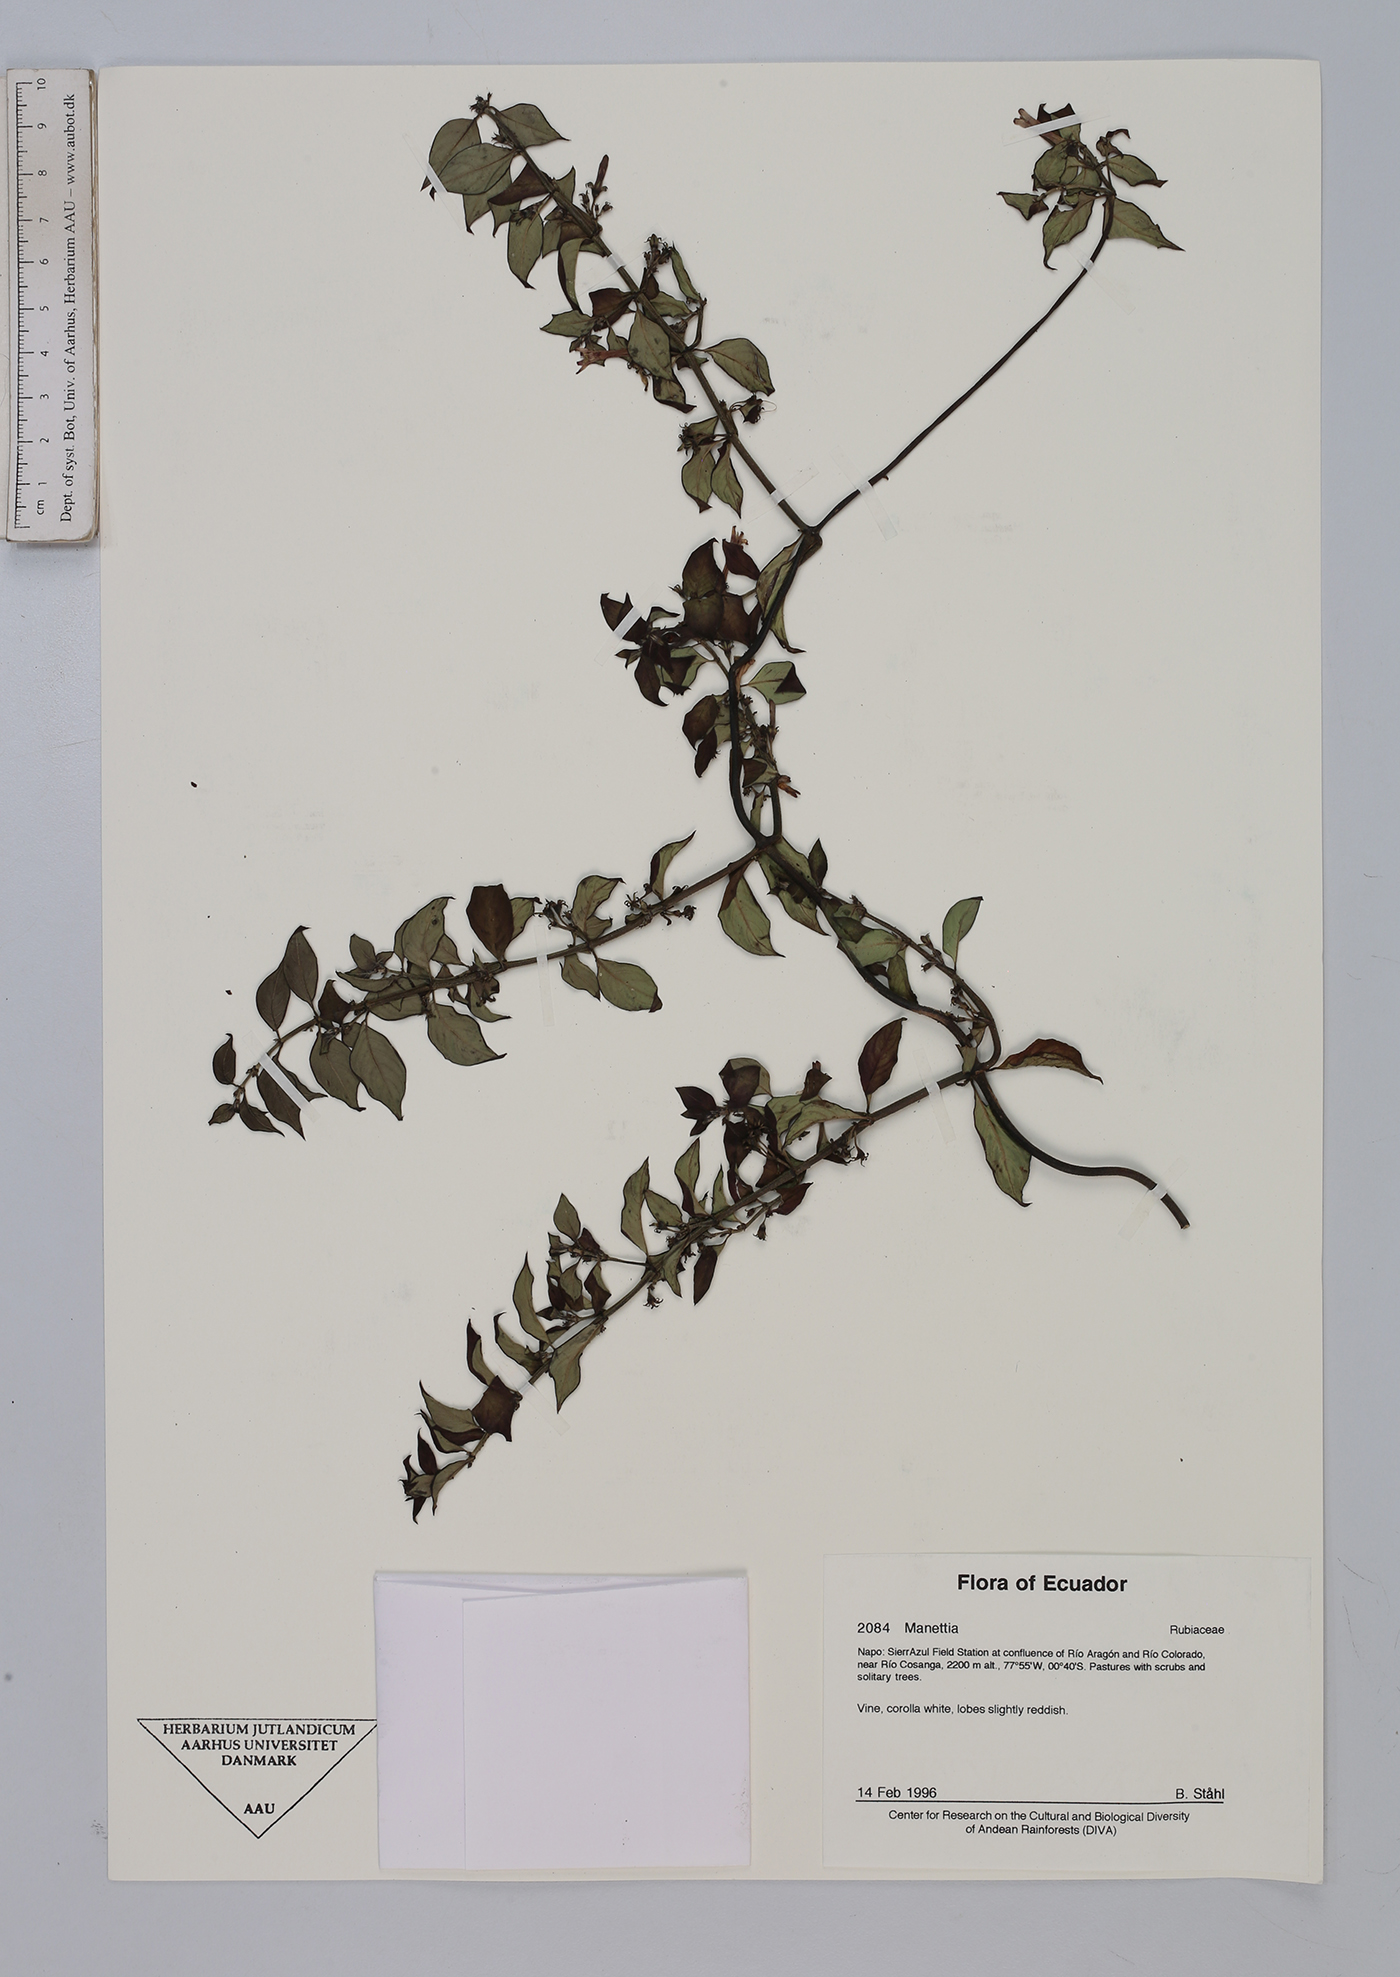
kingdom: Plantae
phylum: Tracheophyta
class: Magnoliopsida
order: Gentianales
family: Rubiaceae
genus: Manettia
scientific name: Manettia
